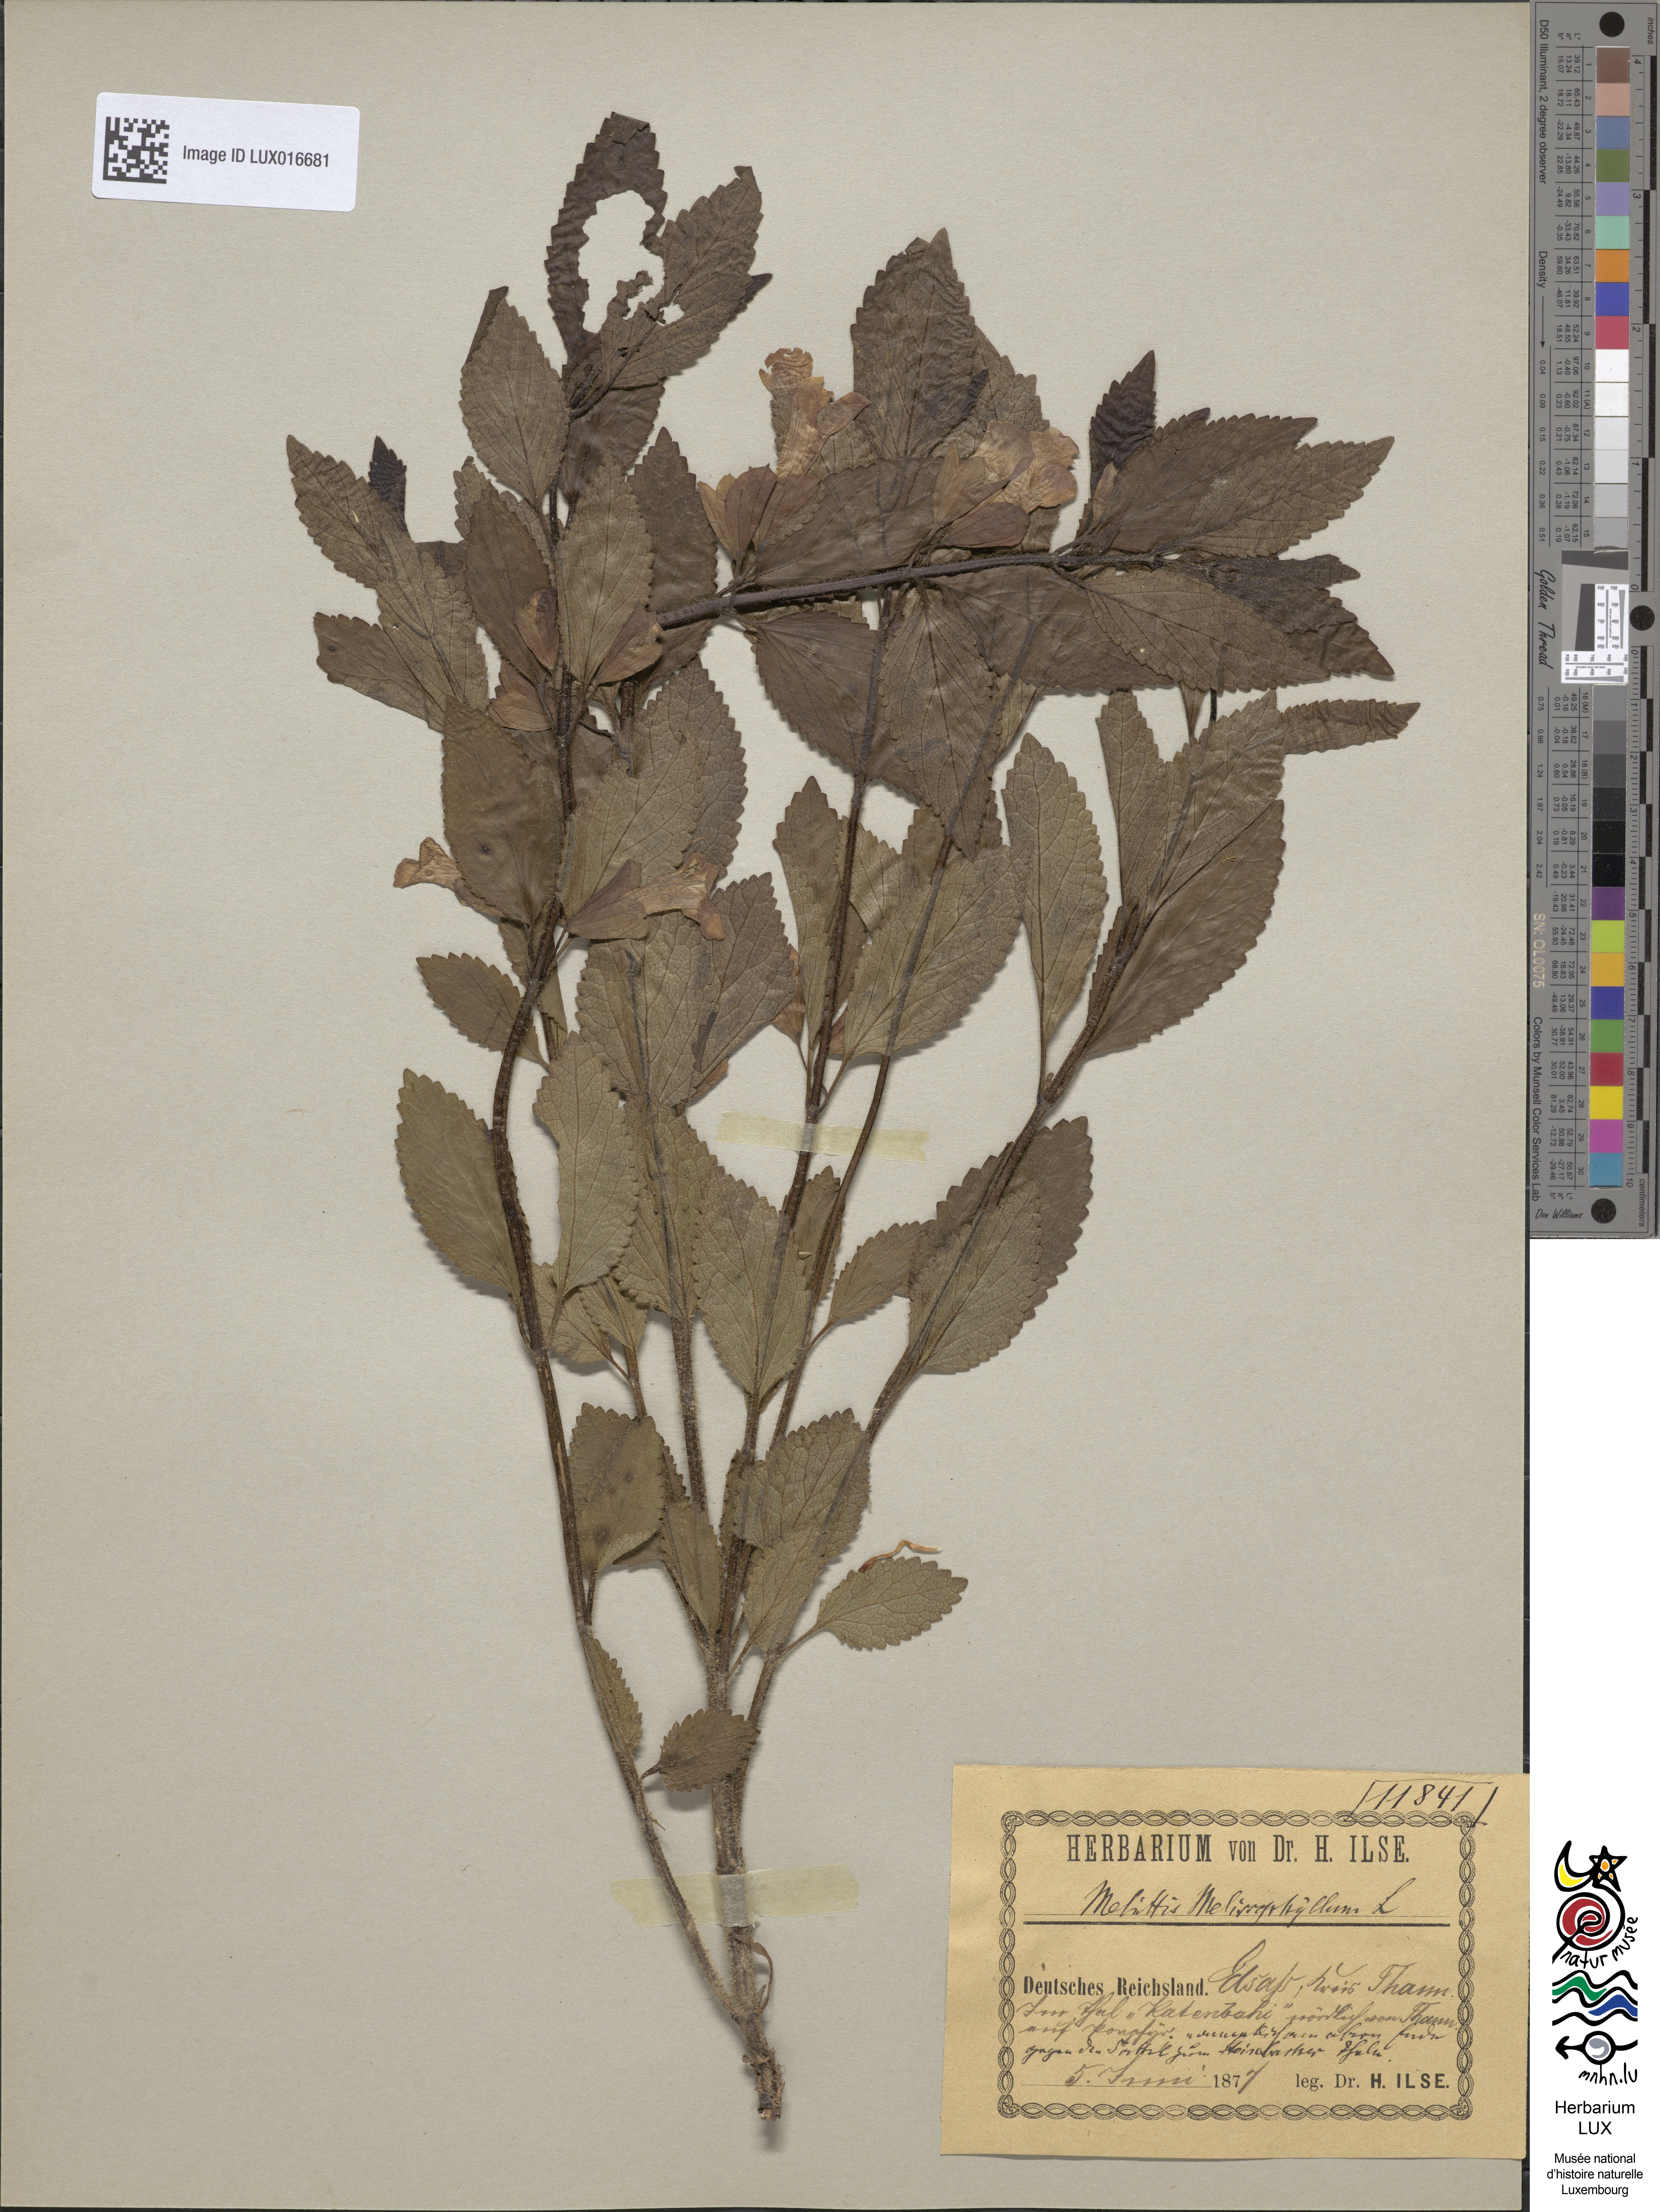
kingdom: Plantae
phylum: Tracheophyta
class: Magnoliopsida
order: Lamiales
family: Lamiaceae
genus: Melittis
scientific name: Melittis melissophyllum
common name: Bastard balm
